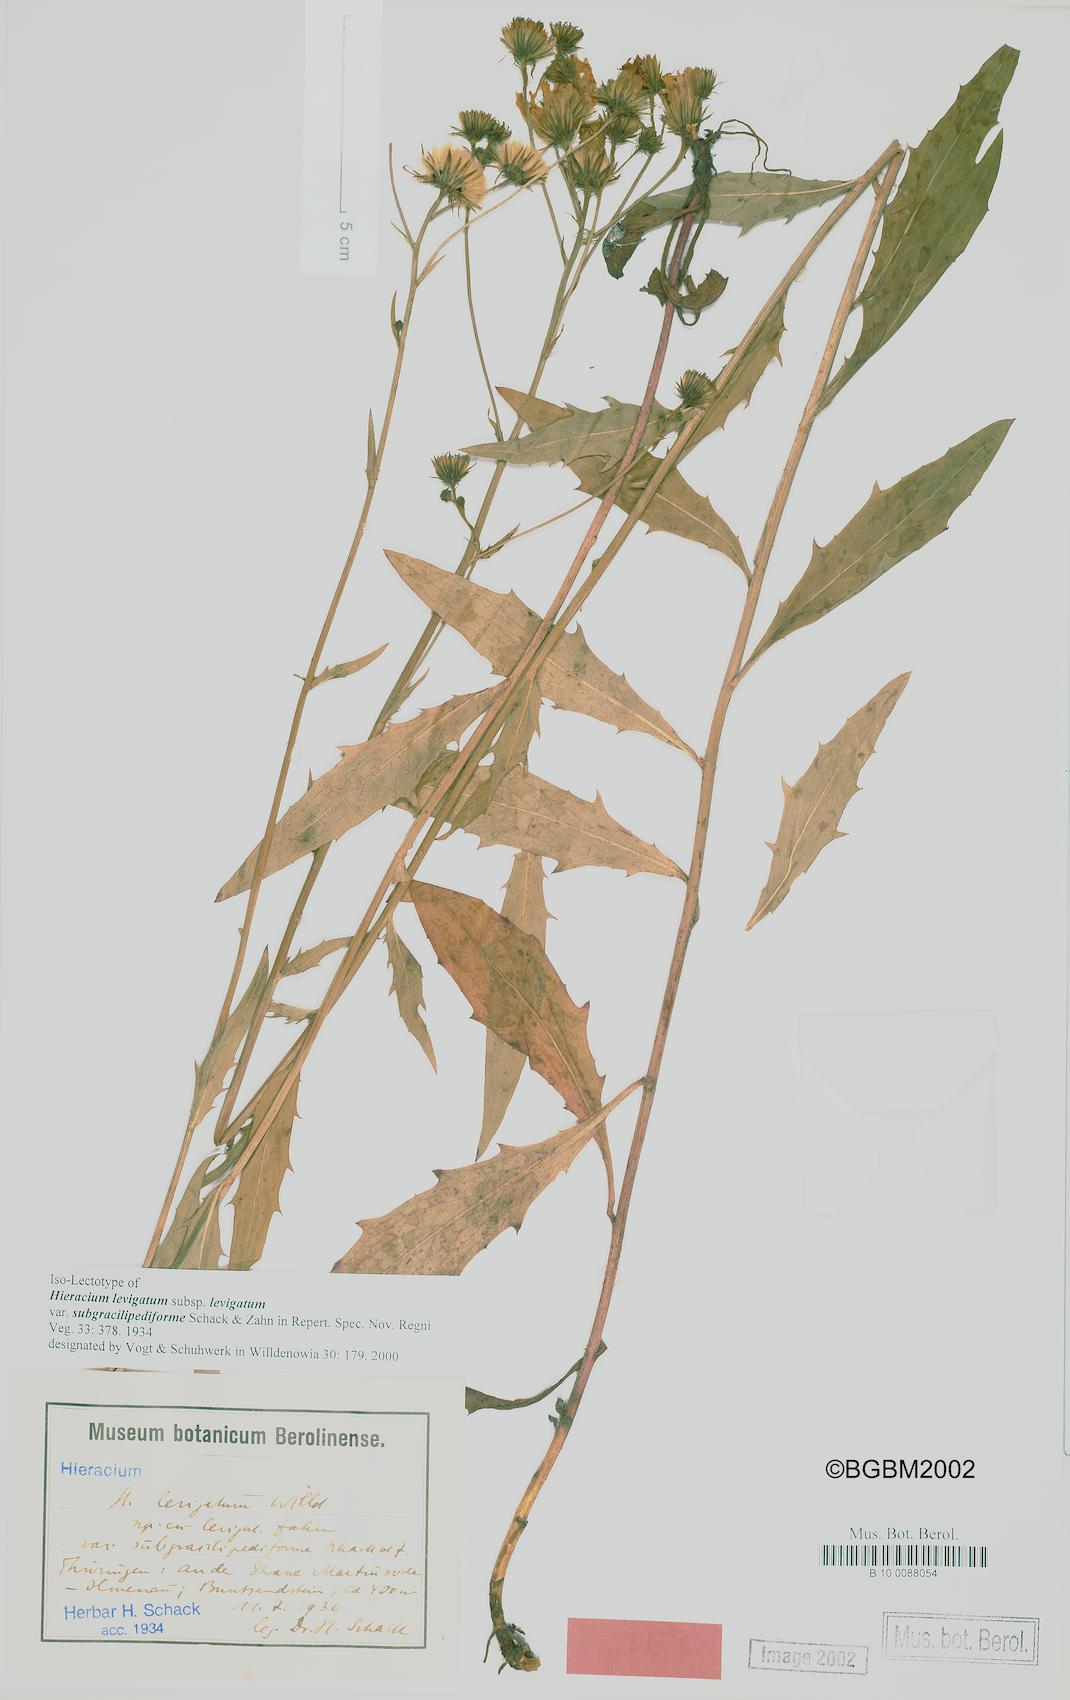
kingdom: Plantae
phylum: Tracheophyta
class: Magnoliopsida
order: Asterales
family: Asteraceae
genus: Hieracium
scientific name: Hieracium laevigatum
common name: Smooth hawkweed
